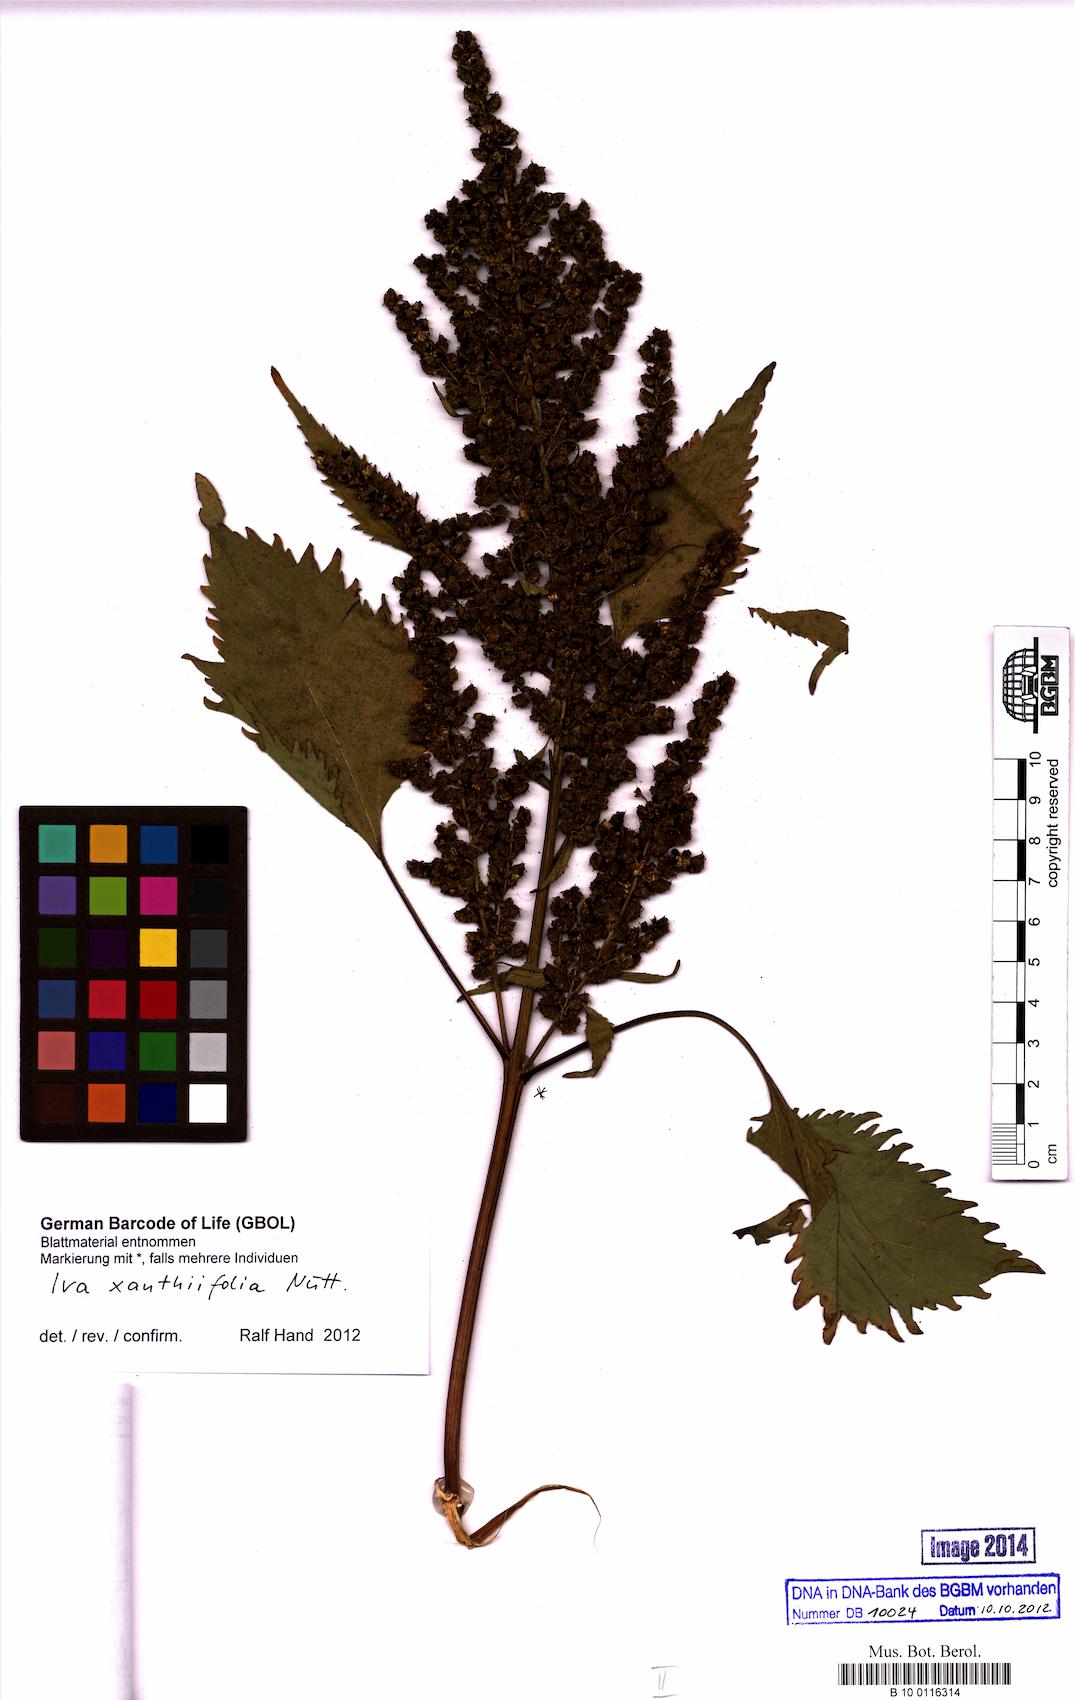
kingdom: Plantae
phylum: Tracheophyta
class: Magnoliopsida
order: Asterales
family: Asteraceae
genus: Cyclachaena
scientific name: Cyclachaena xanthiifolia
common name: Giant sumpweed
